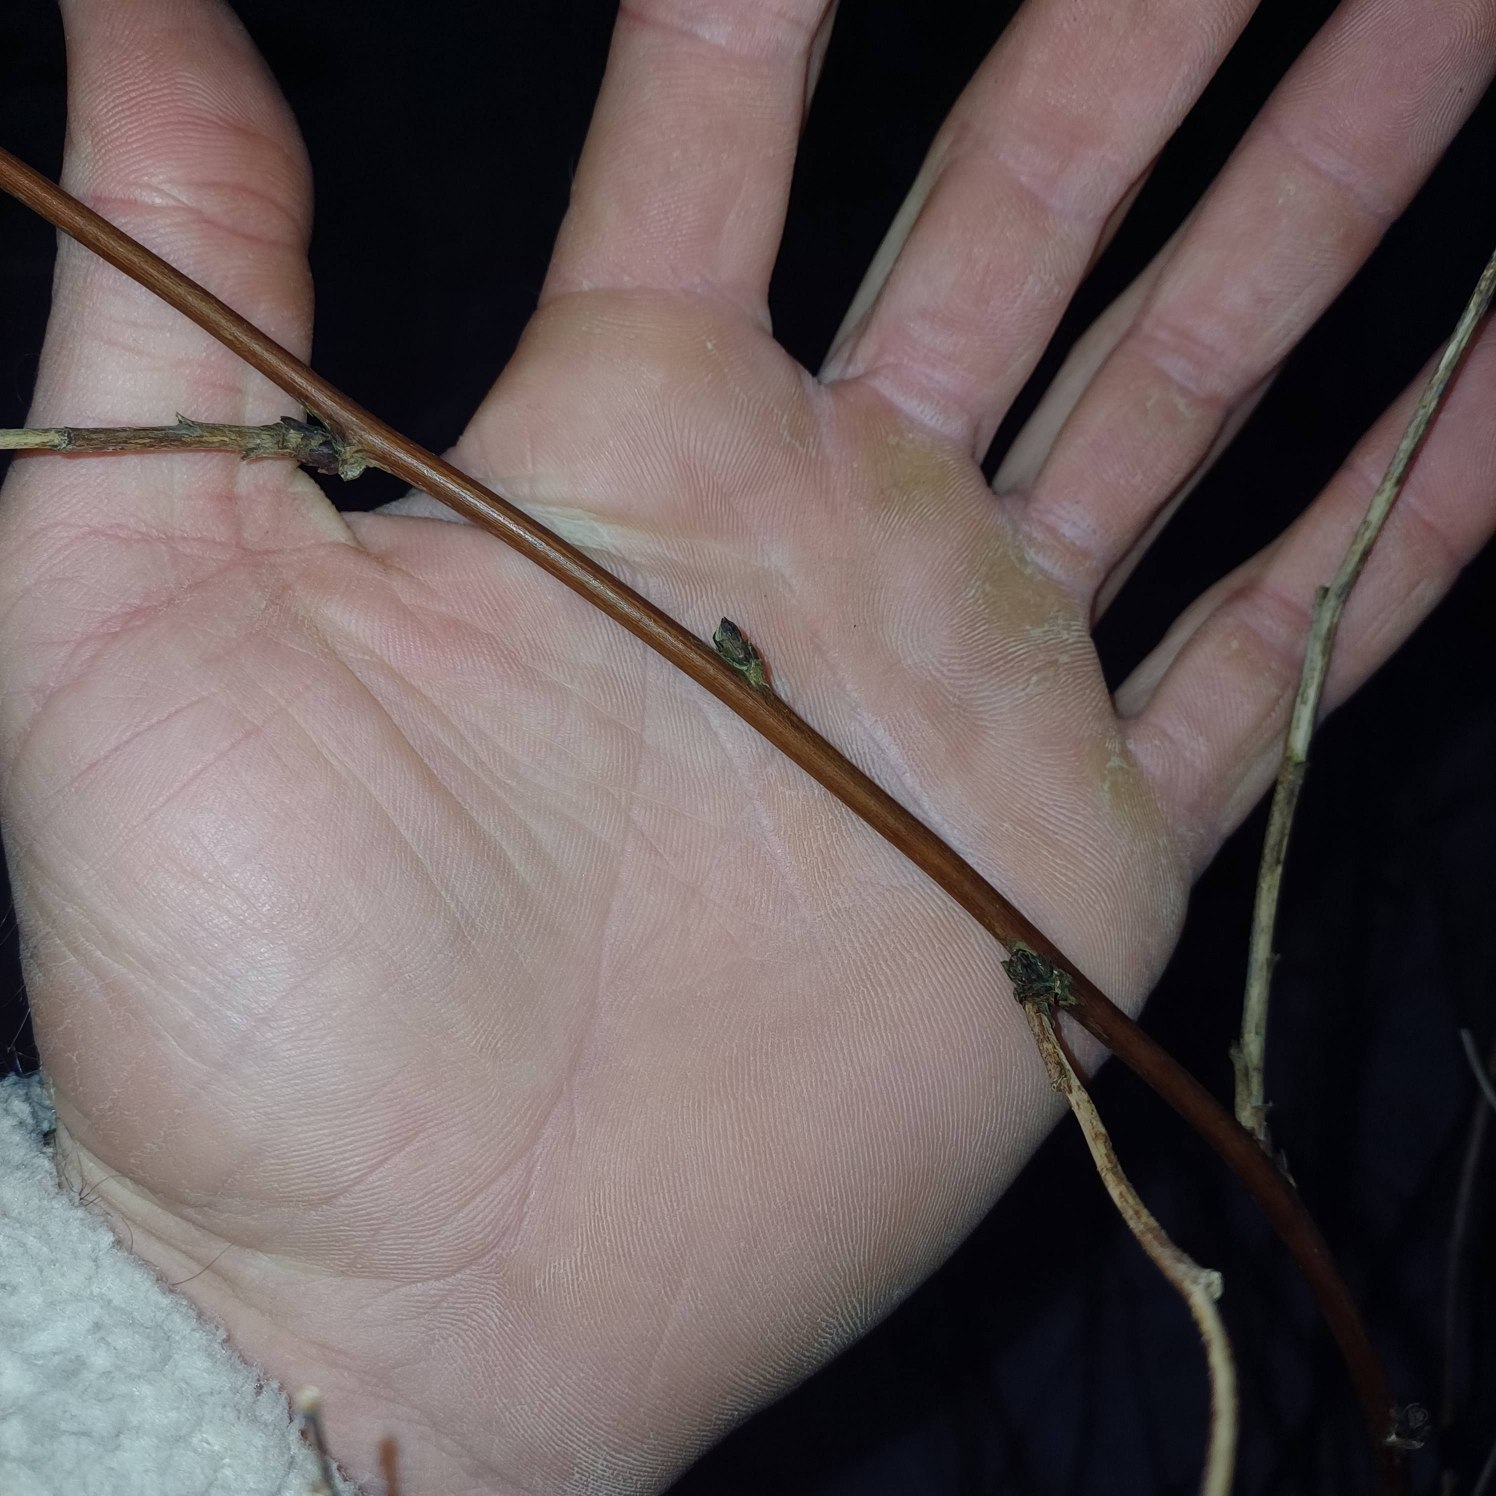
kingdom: Plantae
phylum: Tracheophyta
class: Magnoliopsida
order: Rosales
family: Rosaceae
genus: Rubus
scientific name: Rubus idaeus
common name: Hindbær
